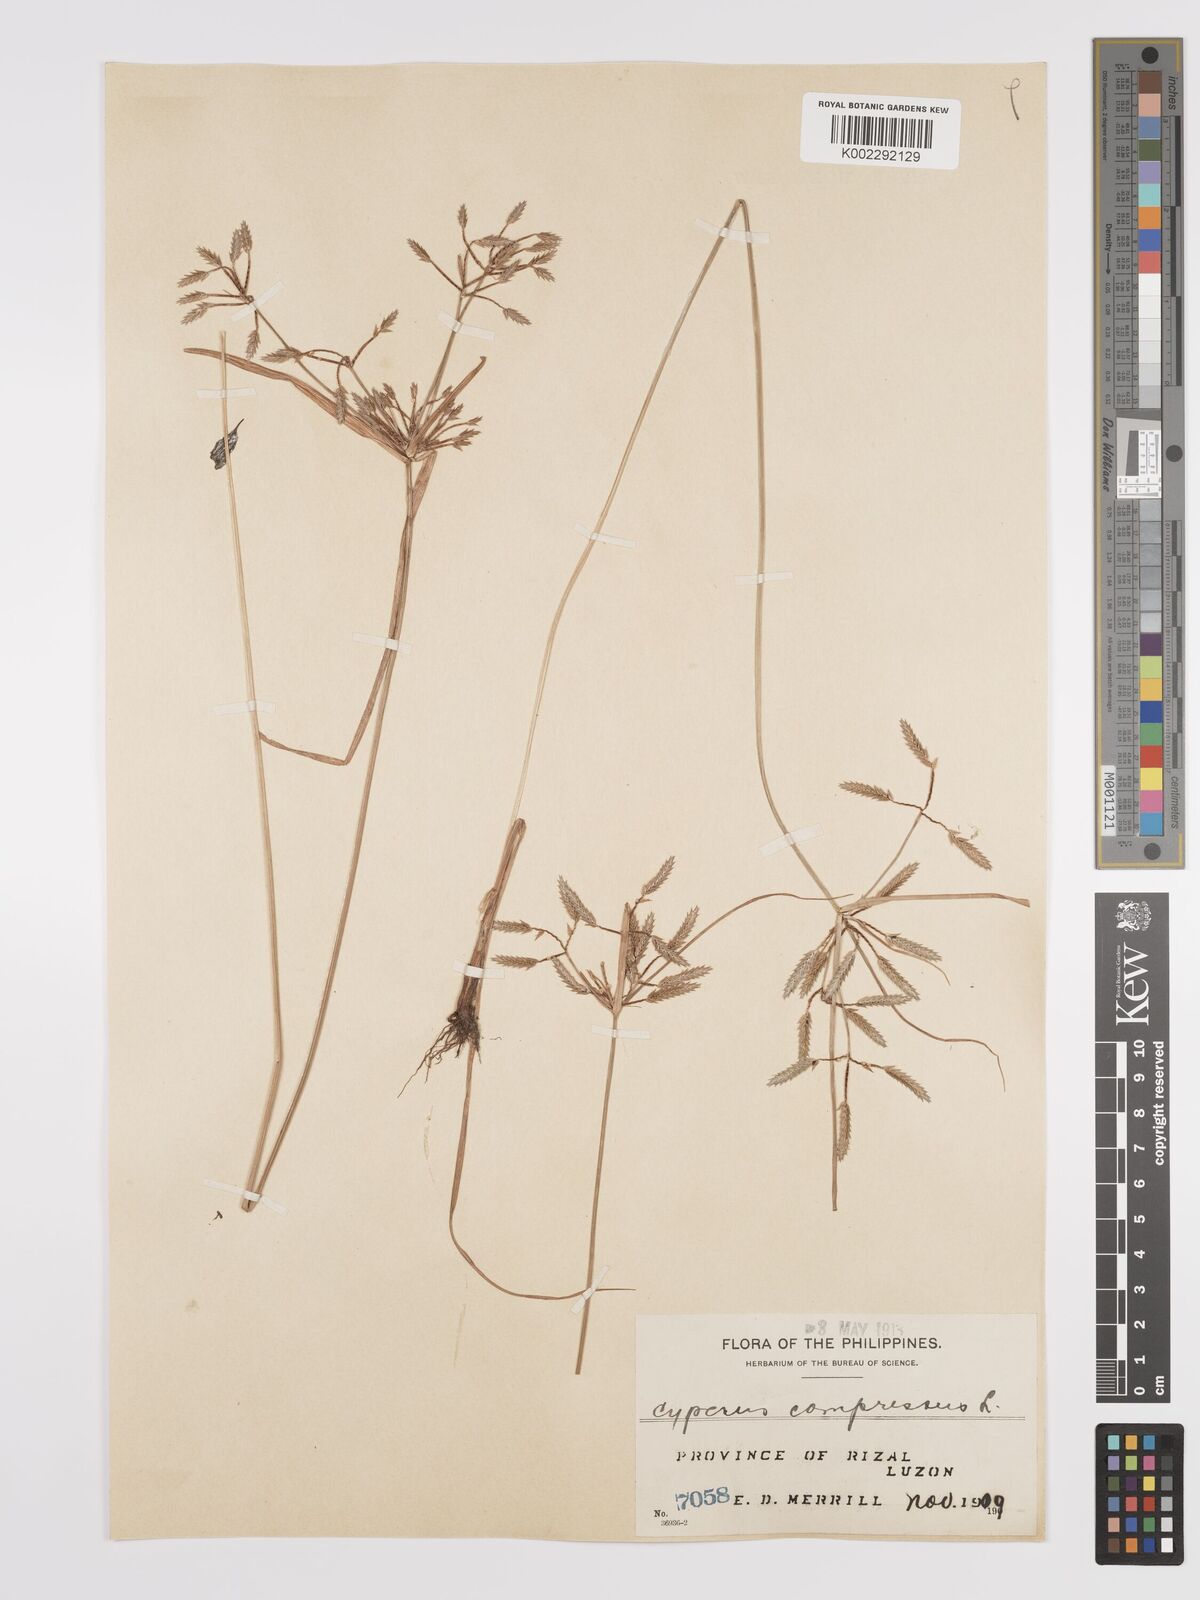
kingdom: Plantae
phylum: Tracheophyta
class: Liliopsida
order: Poales
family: Cyperaceae
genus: Cyperus
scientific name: Cyperus compressus
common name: Poorland flatsedge
